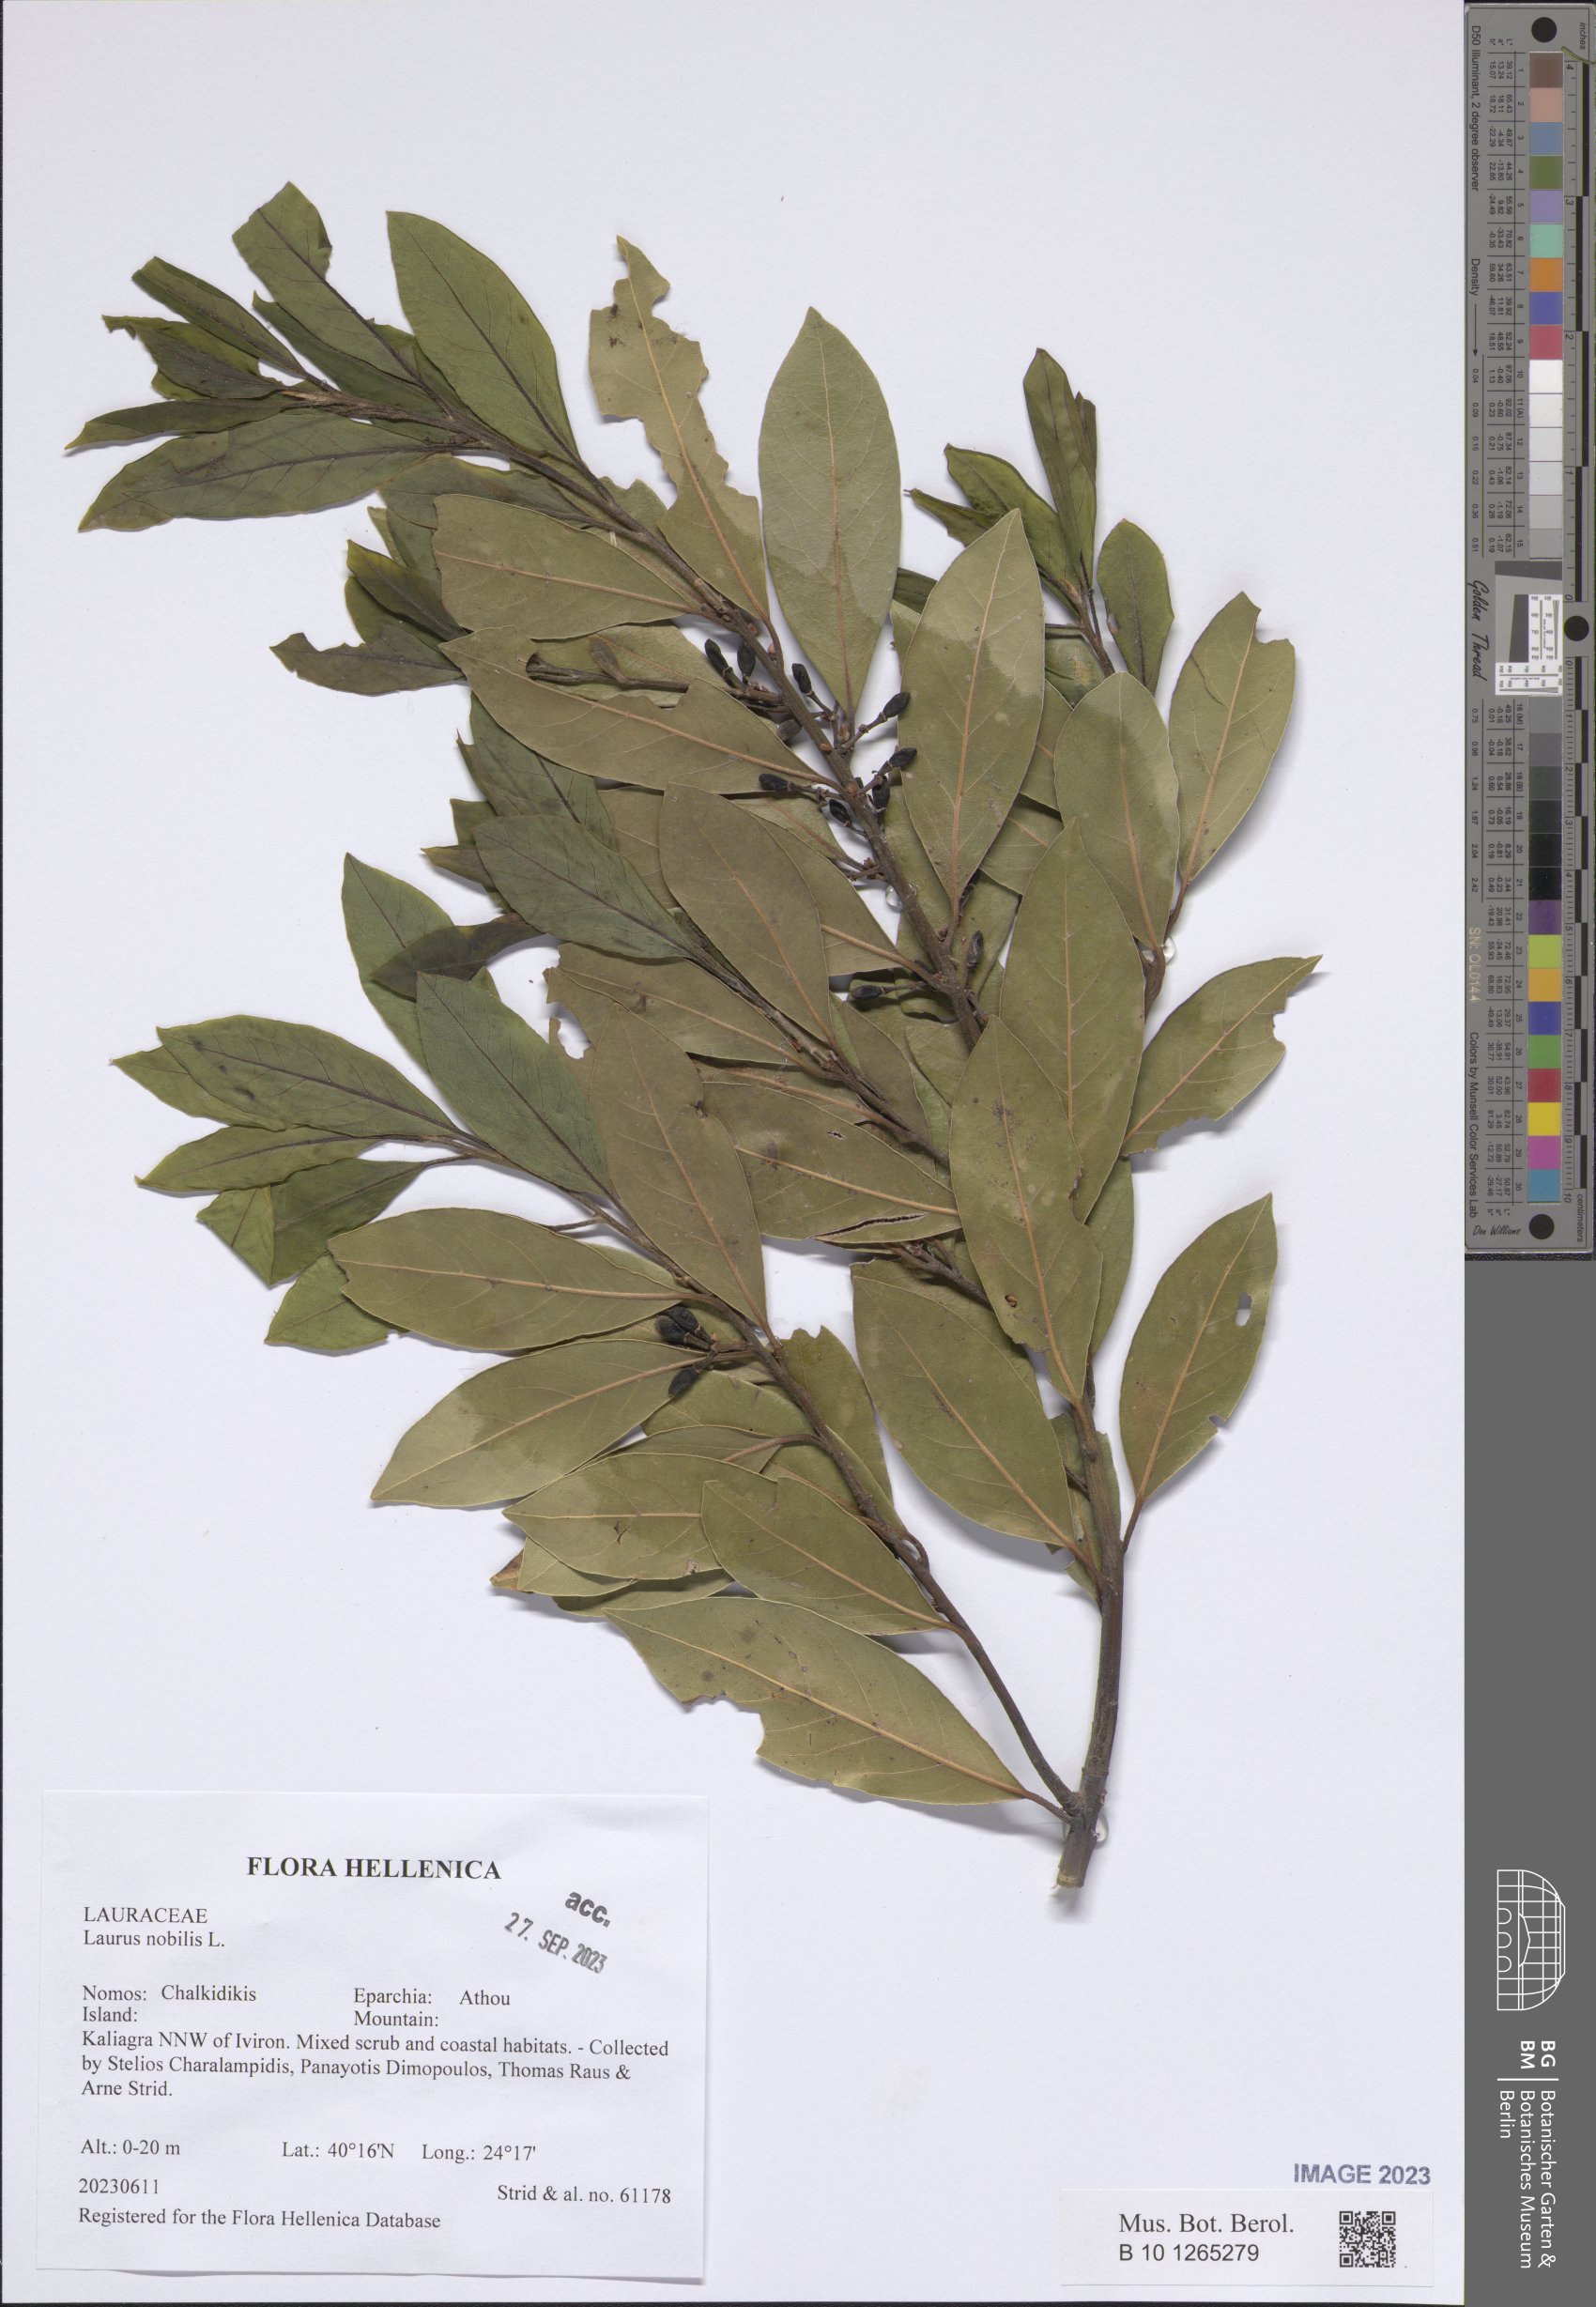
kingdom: Plantae
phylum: Tracheophyta
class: Magnoliopsida
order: Laurales
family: Lauraceae
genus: Laurus
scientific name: Laurus nobilis
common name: Bay
